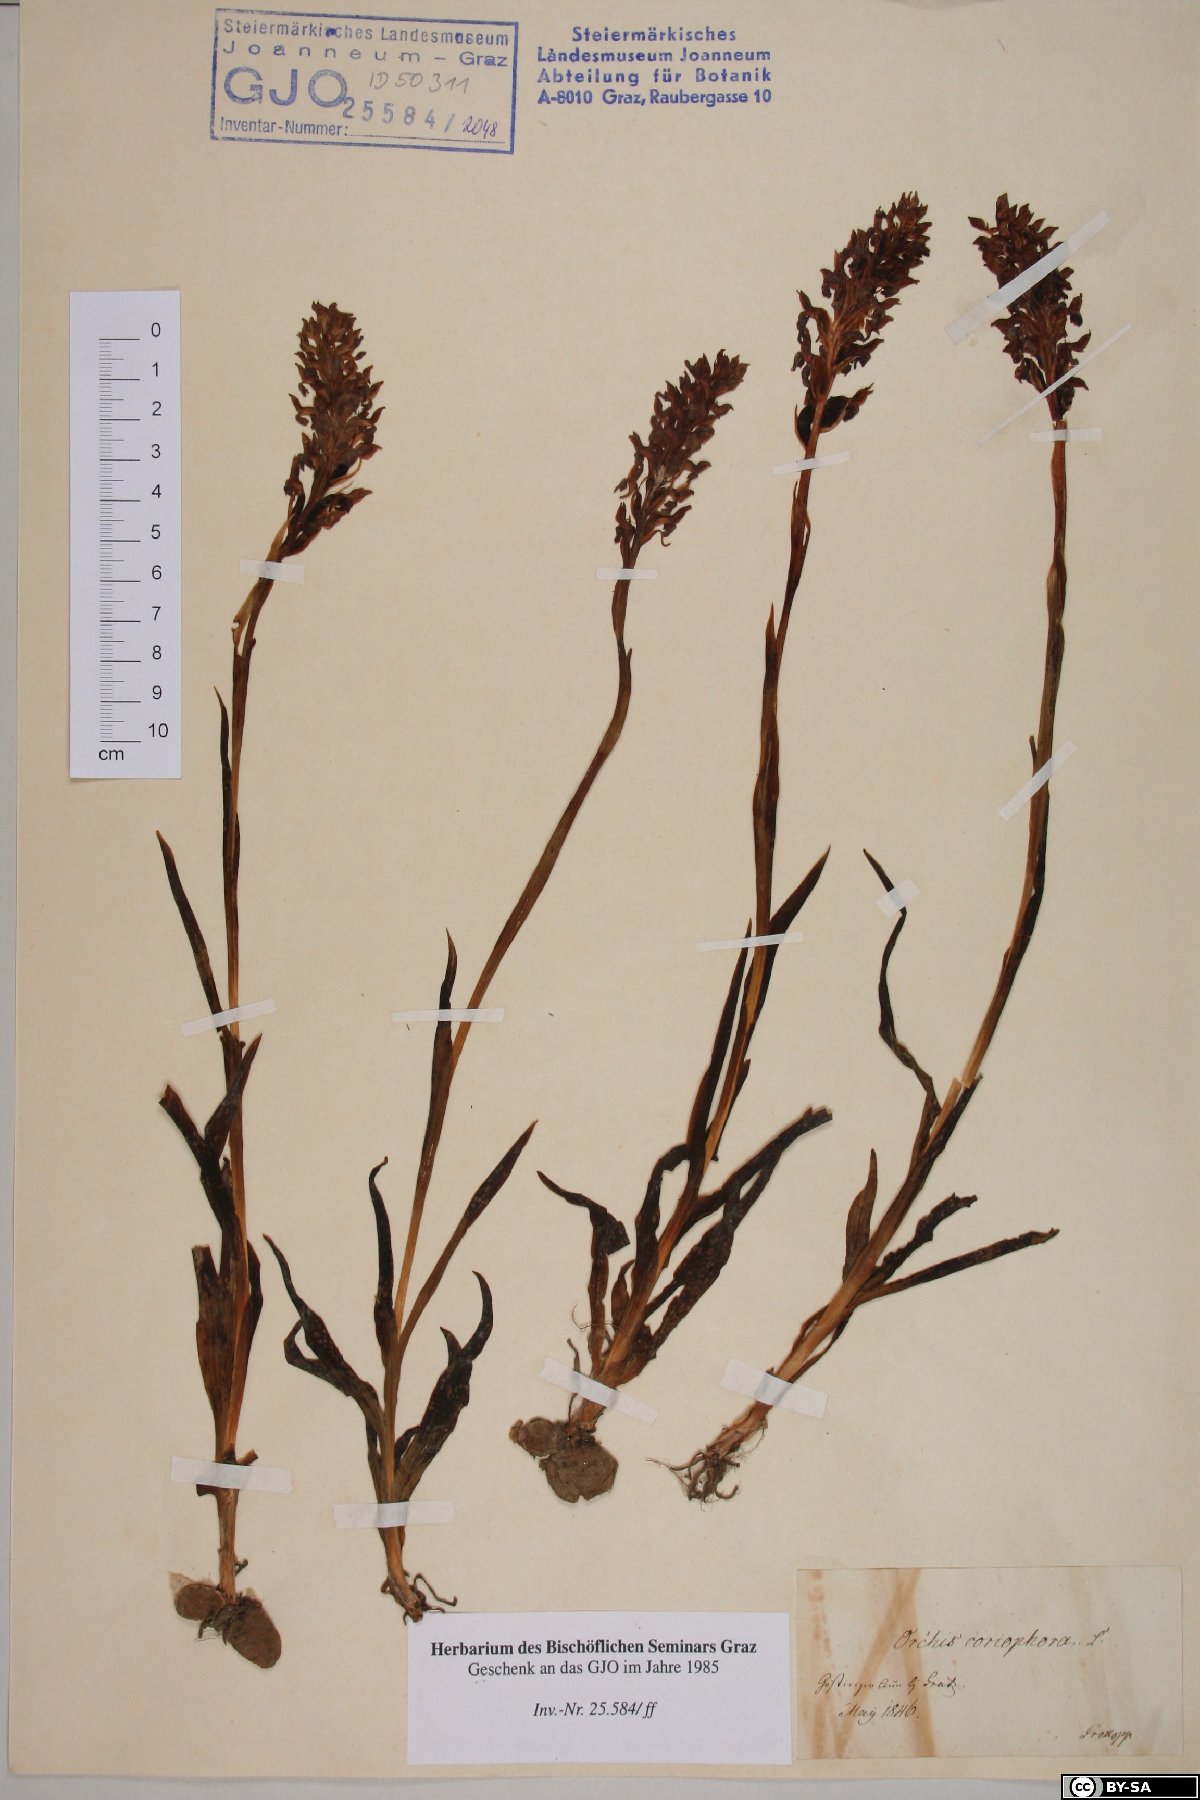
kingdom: Plantae
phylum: Tracheophyta
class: Liliopsida
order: Asparagales
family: Orchidaceae
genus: Anacamptis
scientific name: Anacamptis coriophora
